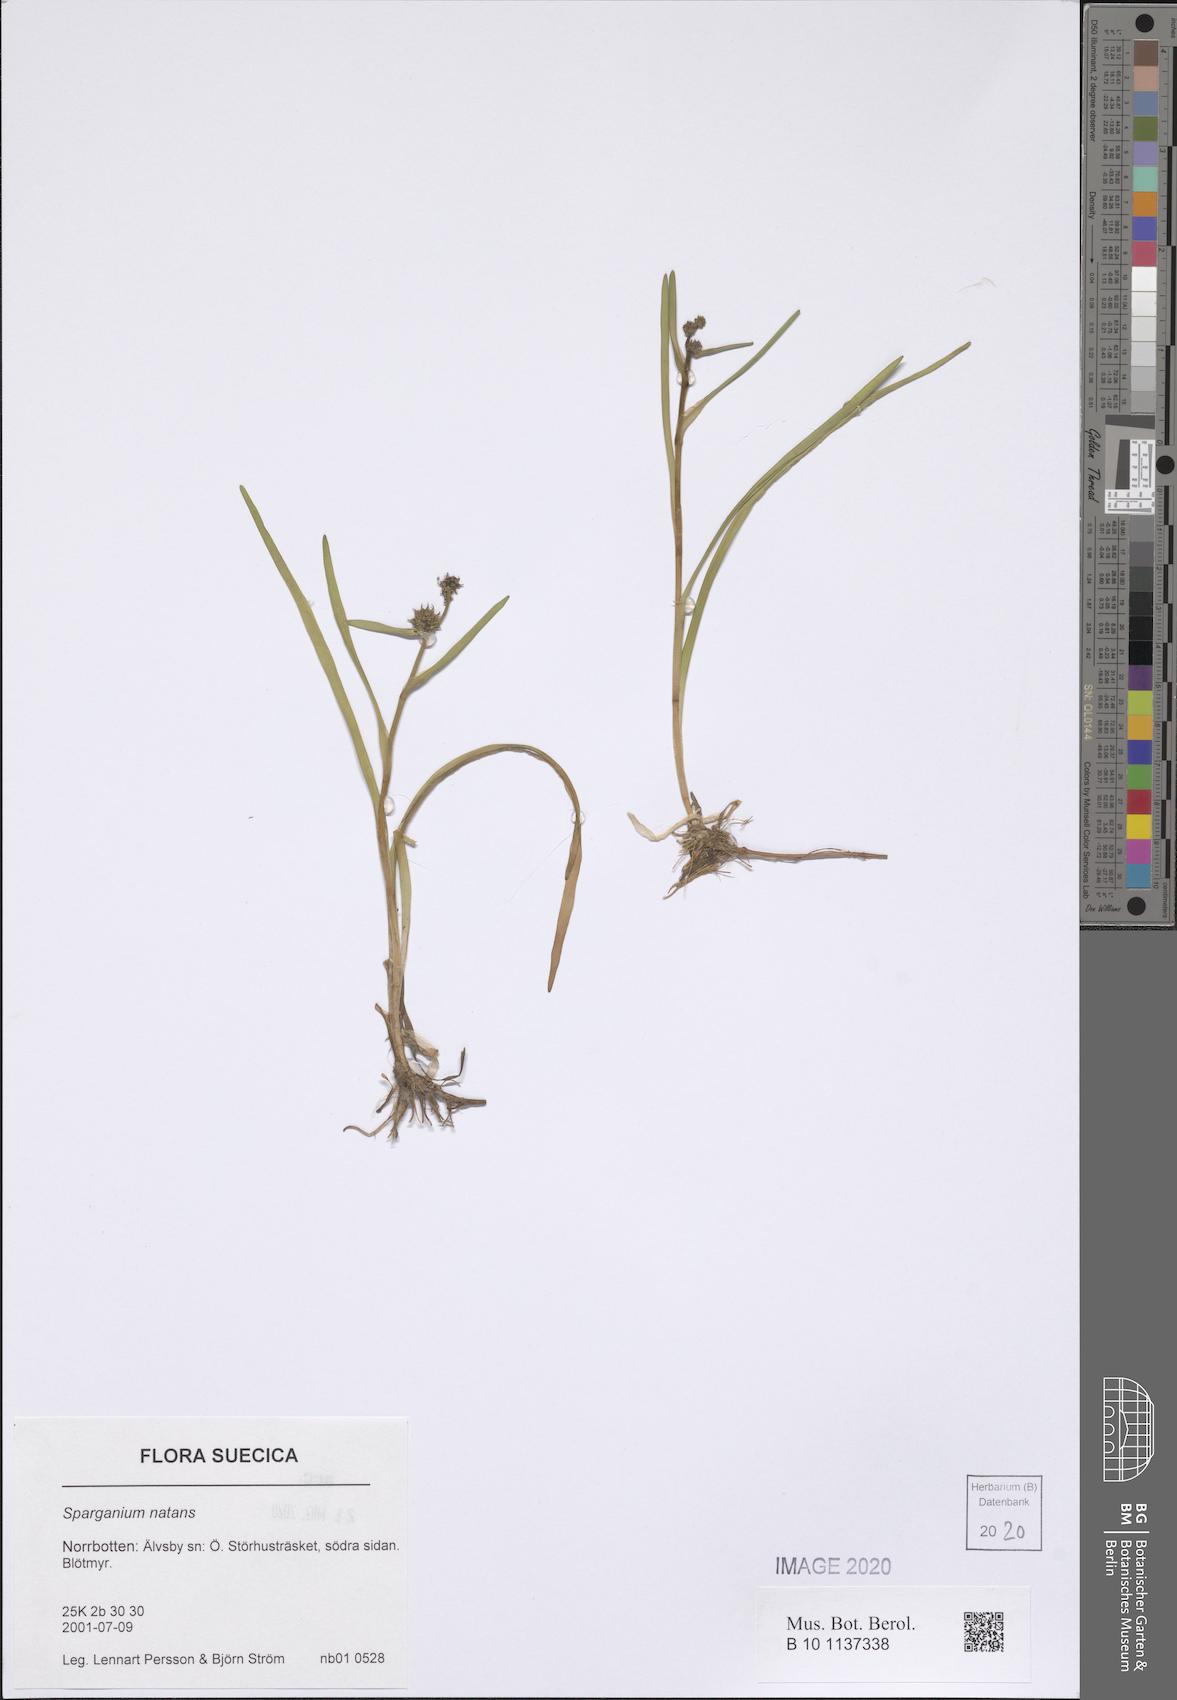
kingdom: Plantae
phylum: Tracheophyta
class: Liliopsida
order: Poales
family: Typhaceae
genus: Sparganium
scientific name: Sparganium natans
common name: Least bur-reed
